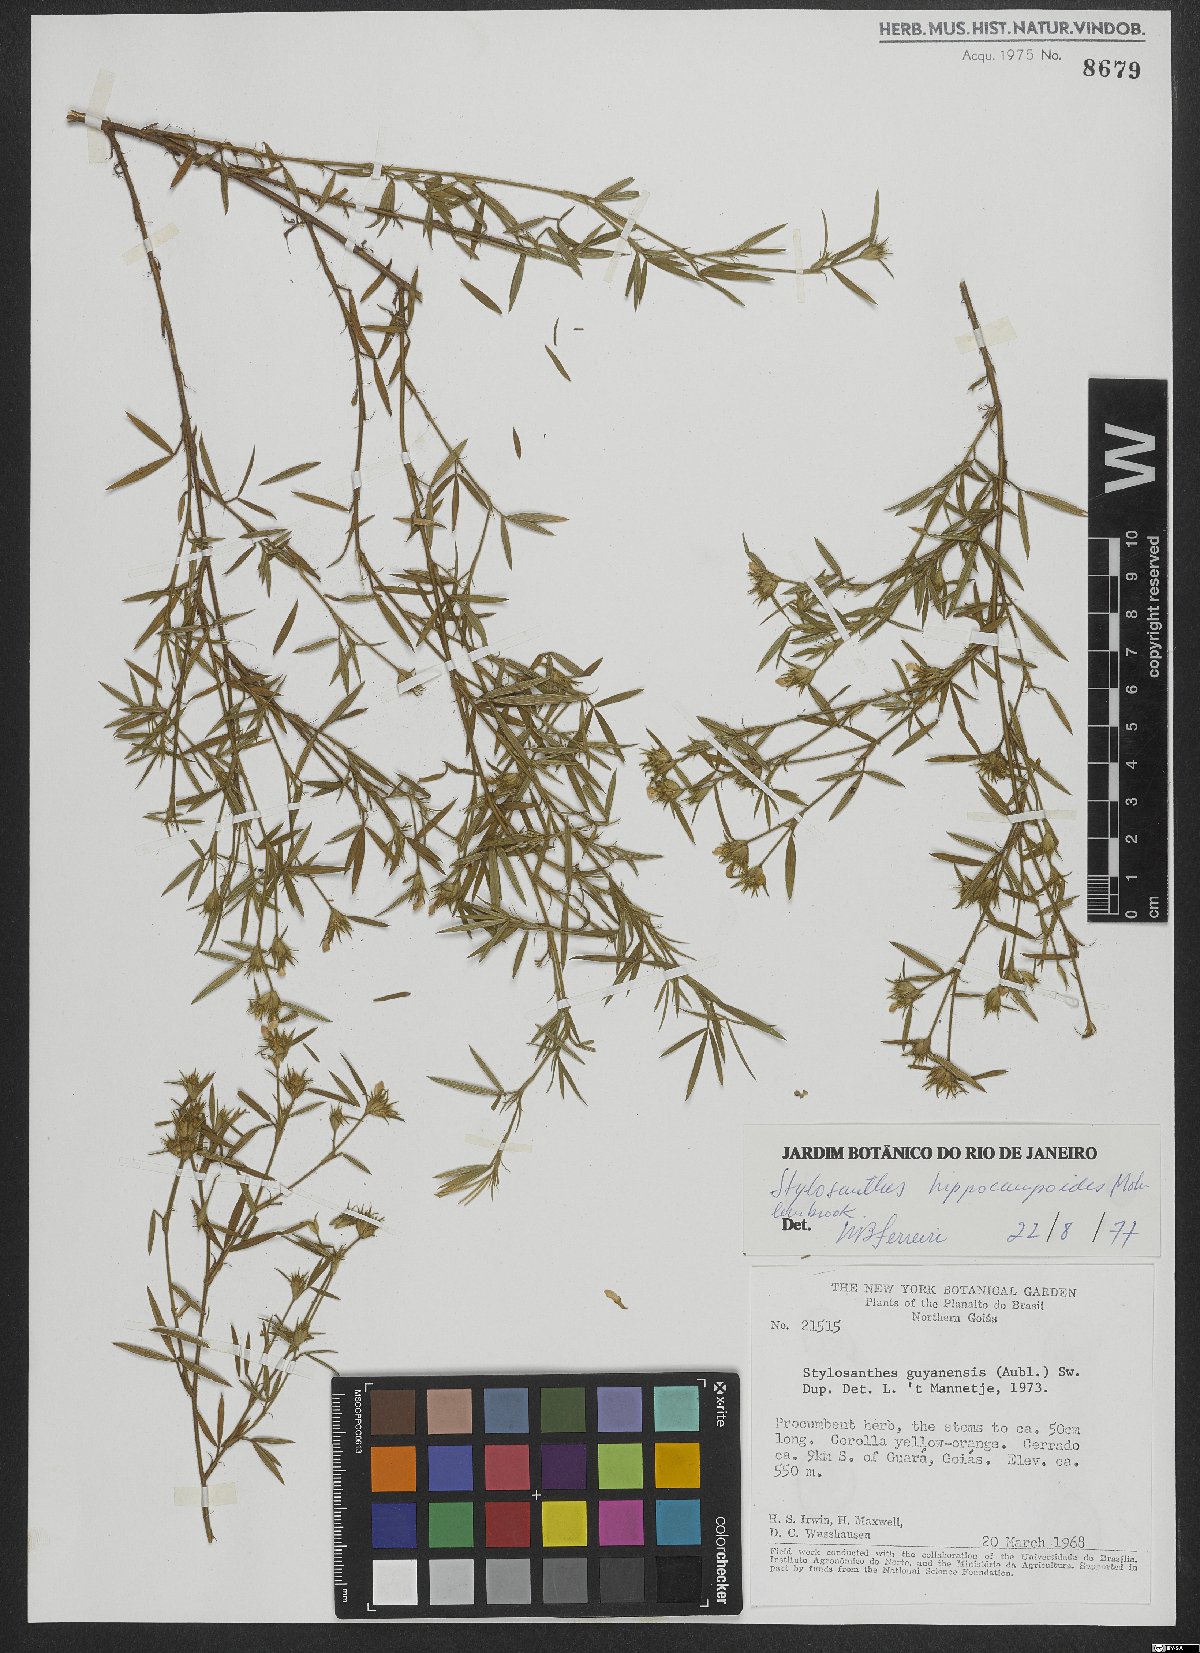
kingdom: Plantae
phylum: Tracheophyta
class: Magnoliopsida
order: Fabales
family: Fabaceae
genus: Stylosanthes
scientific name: Stylosanthes hippocampoides
